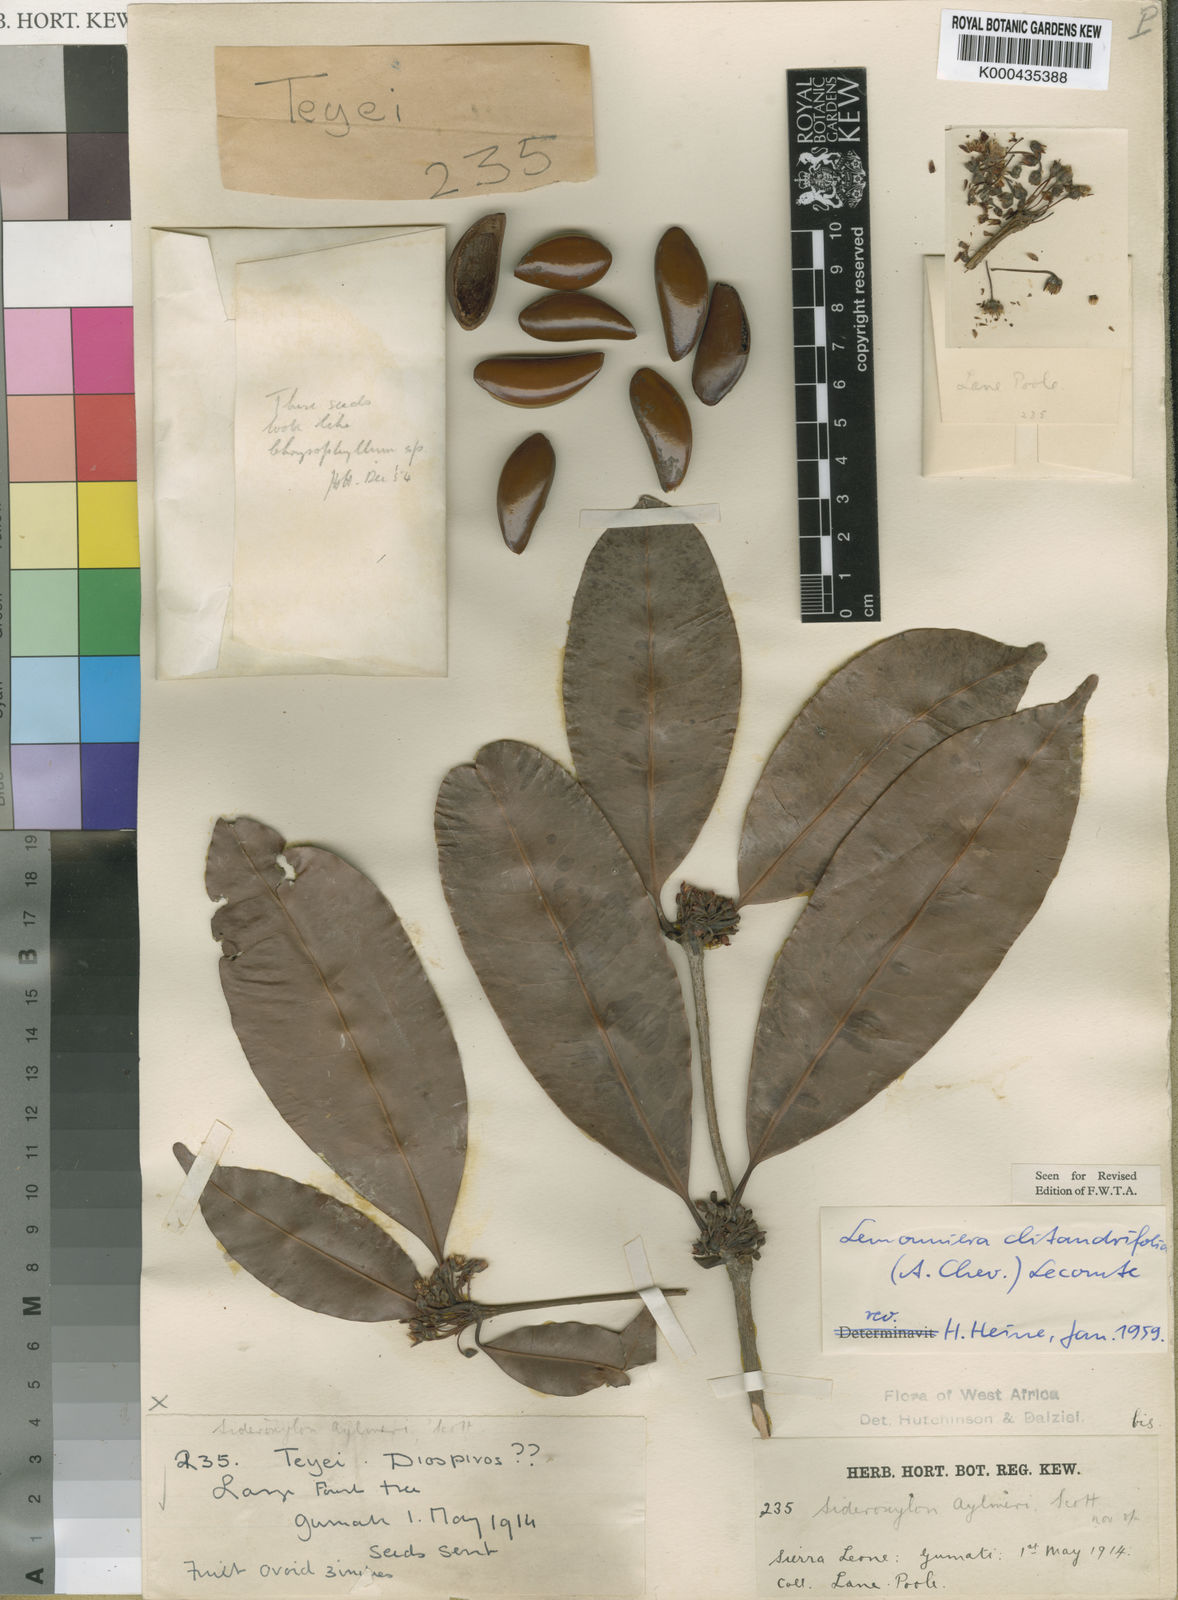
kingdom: Plantae
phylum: Tracheophyta
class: Magnoliopsida
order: Ericales
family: Sapotaceae
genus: Neolemonniera
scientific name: Neolemonniera clitandrifolia
